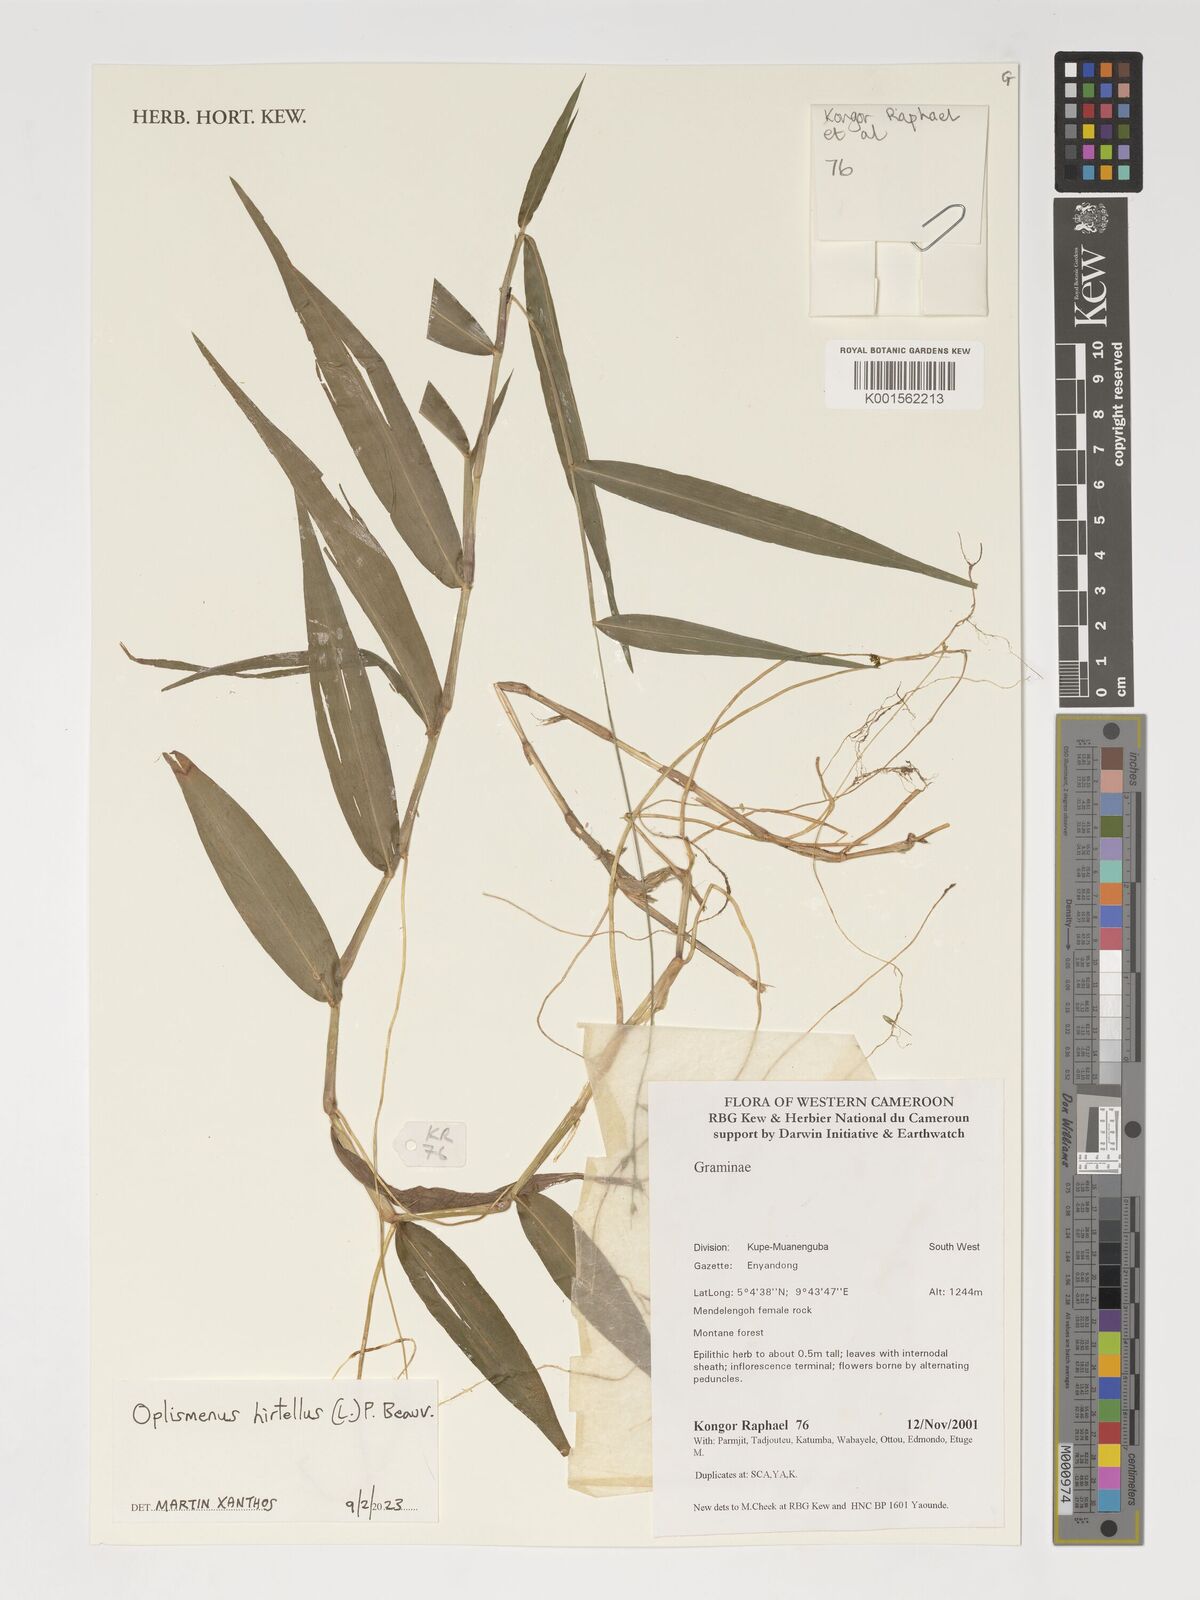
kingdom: Plantae
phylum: Tracheophyta
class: Liliopsida
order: Poales
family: Poaceae
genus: Oplismenus
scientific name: Oplismenus hirtellus
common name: Basketgrass
